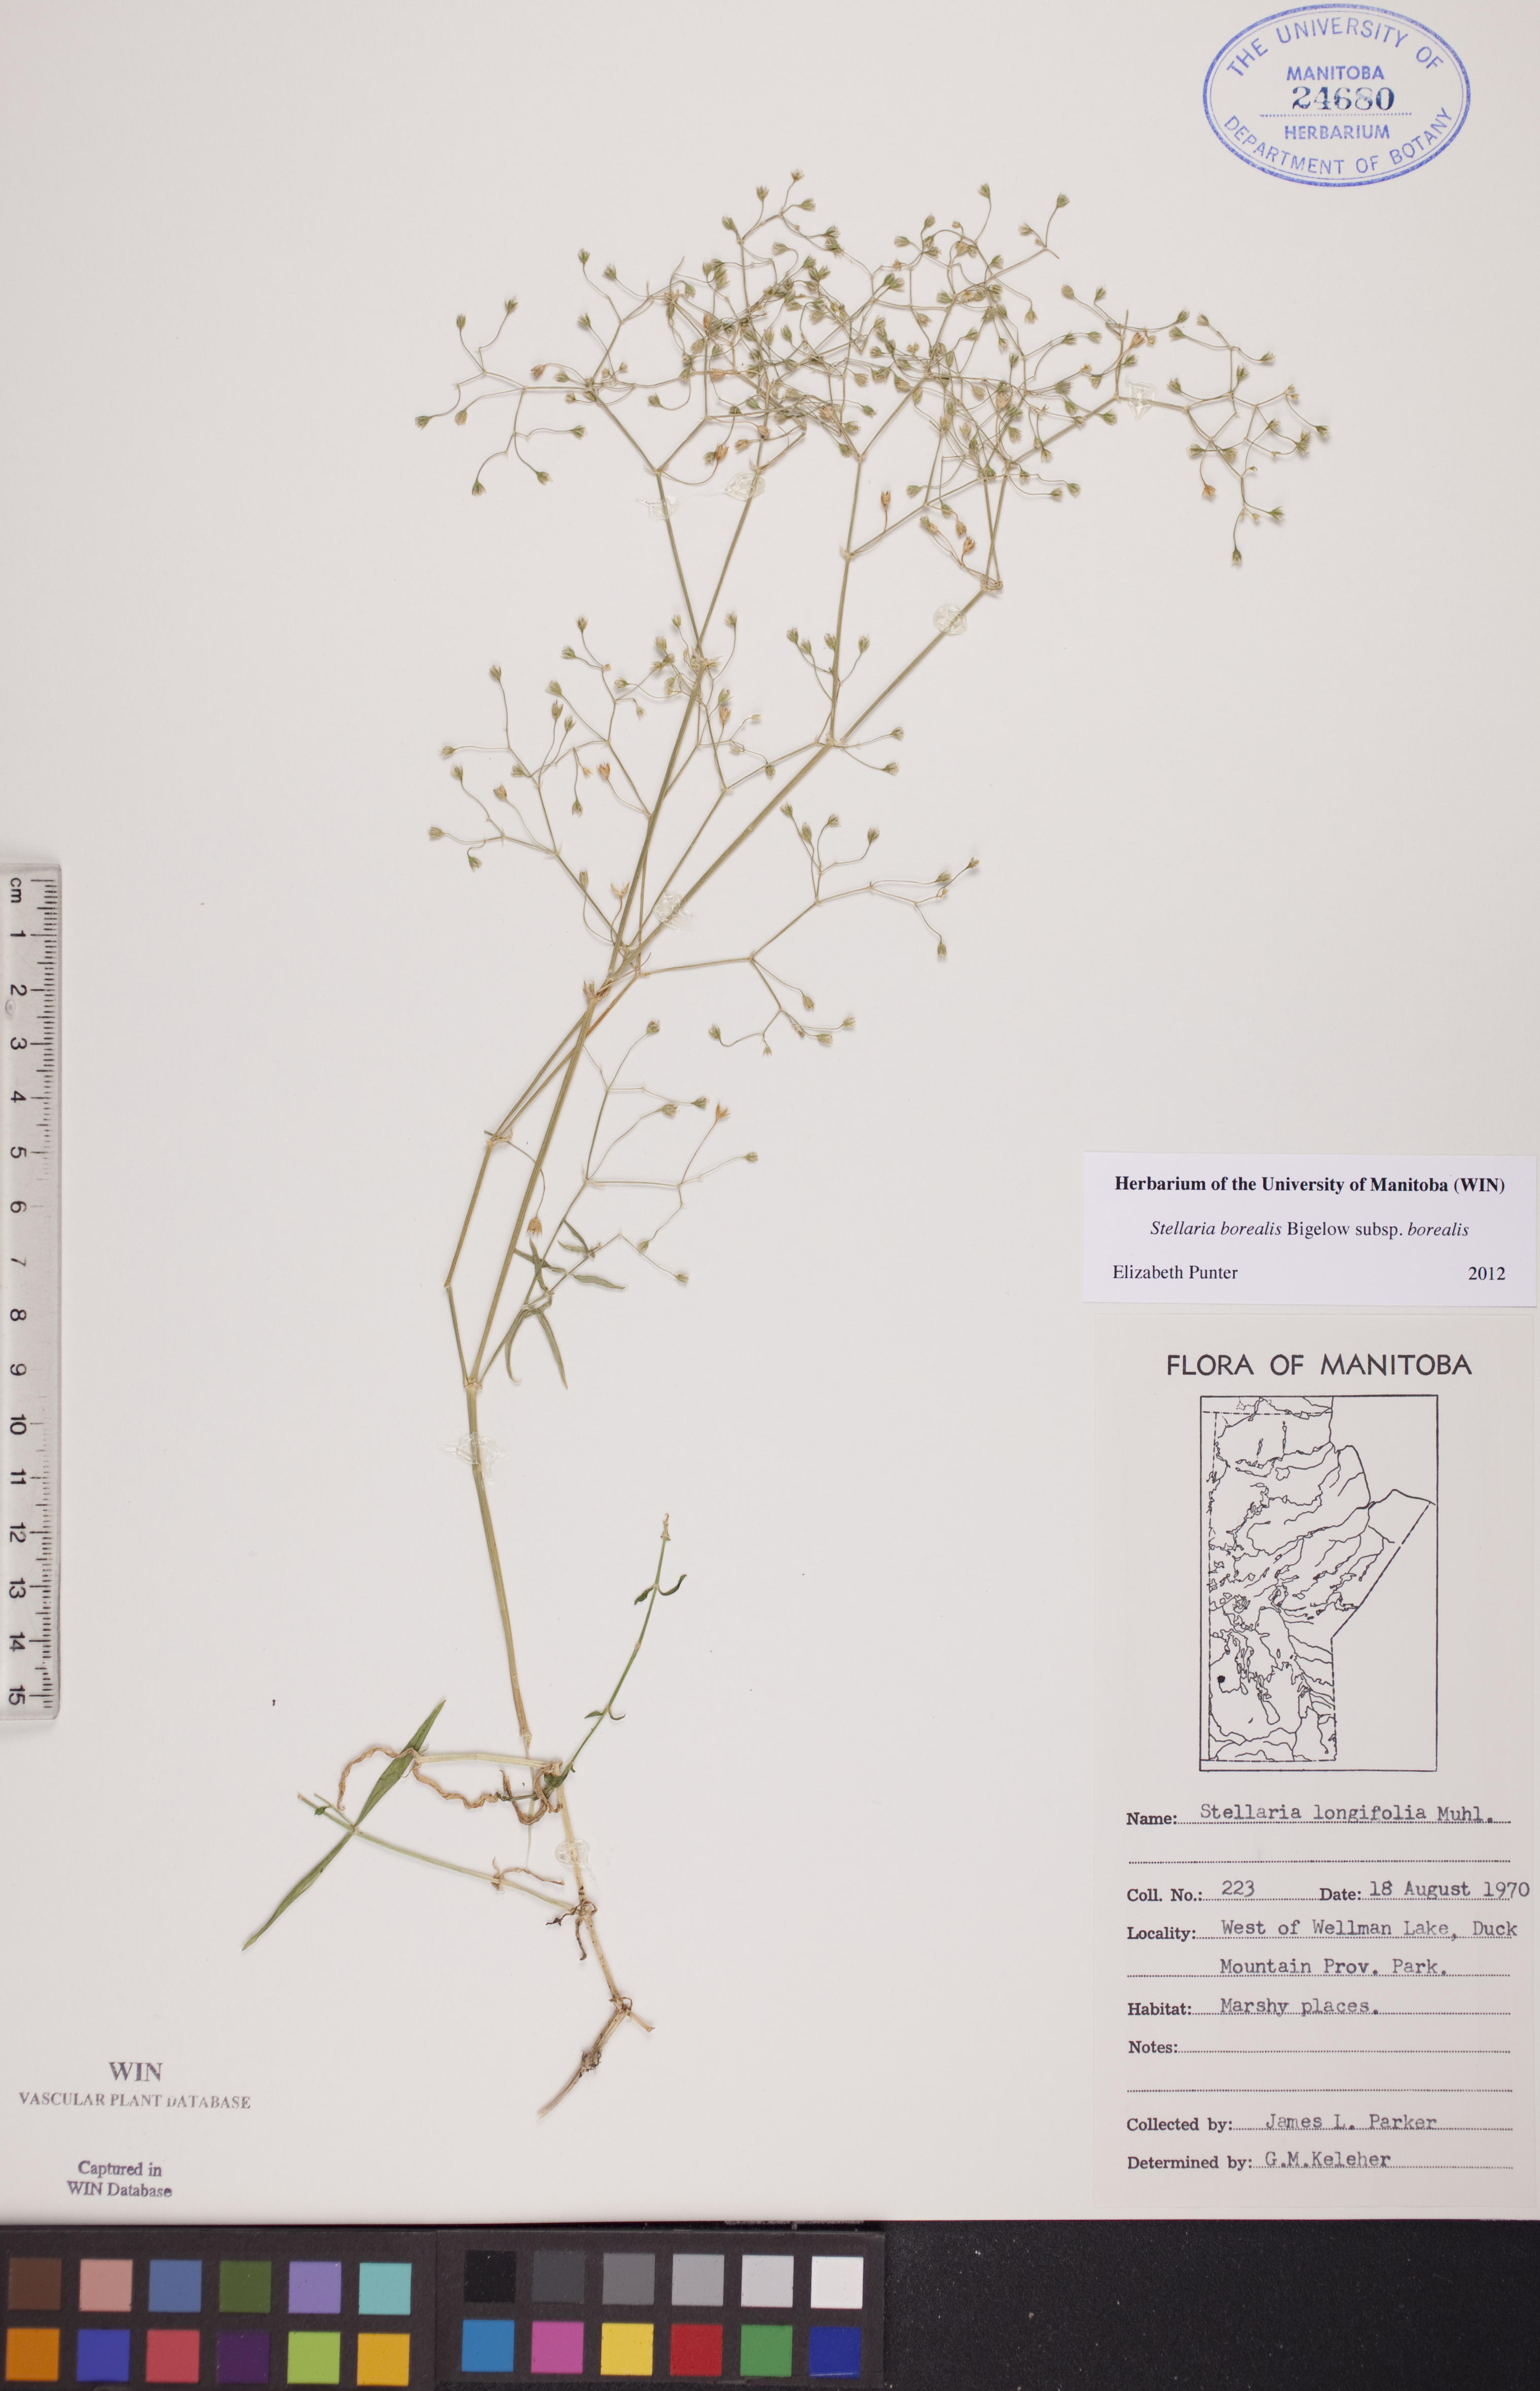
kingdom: Plantae
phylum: Tracheophyta
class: Magnoliopsida
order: Caryophyllales
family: Caryophyllaceae
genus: Stellaria
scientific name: Stellaria borealis
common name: Boreal starwort
